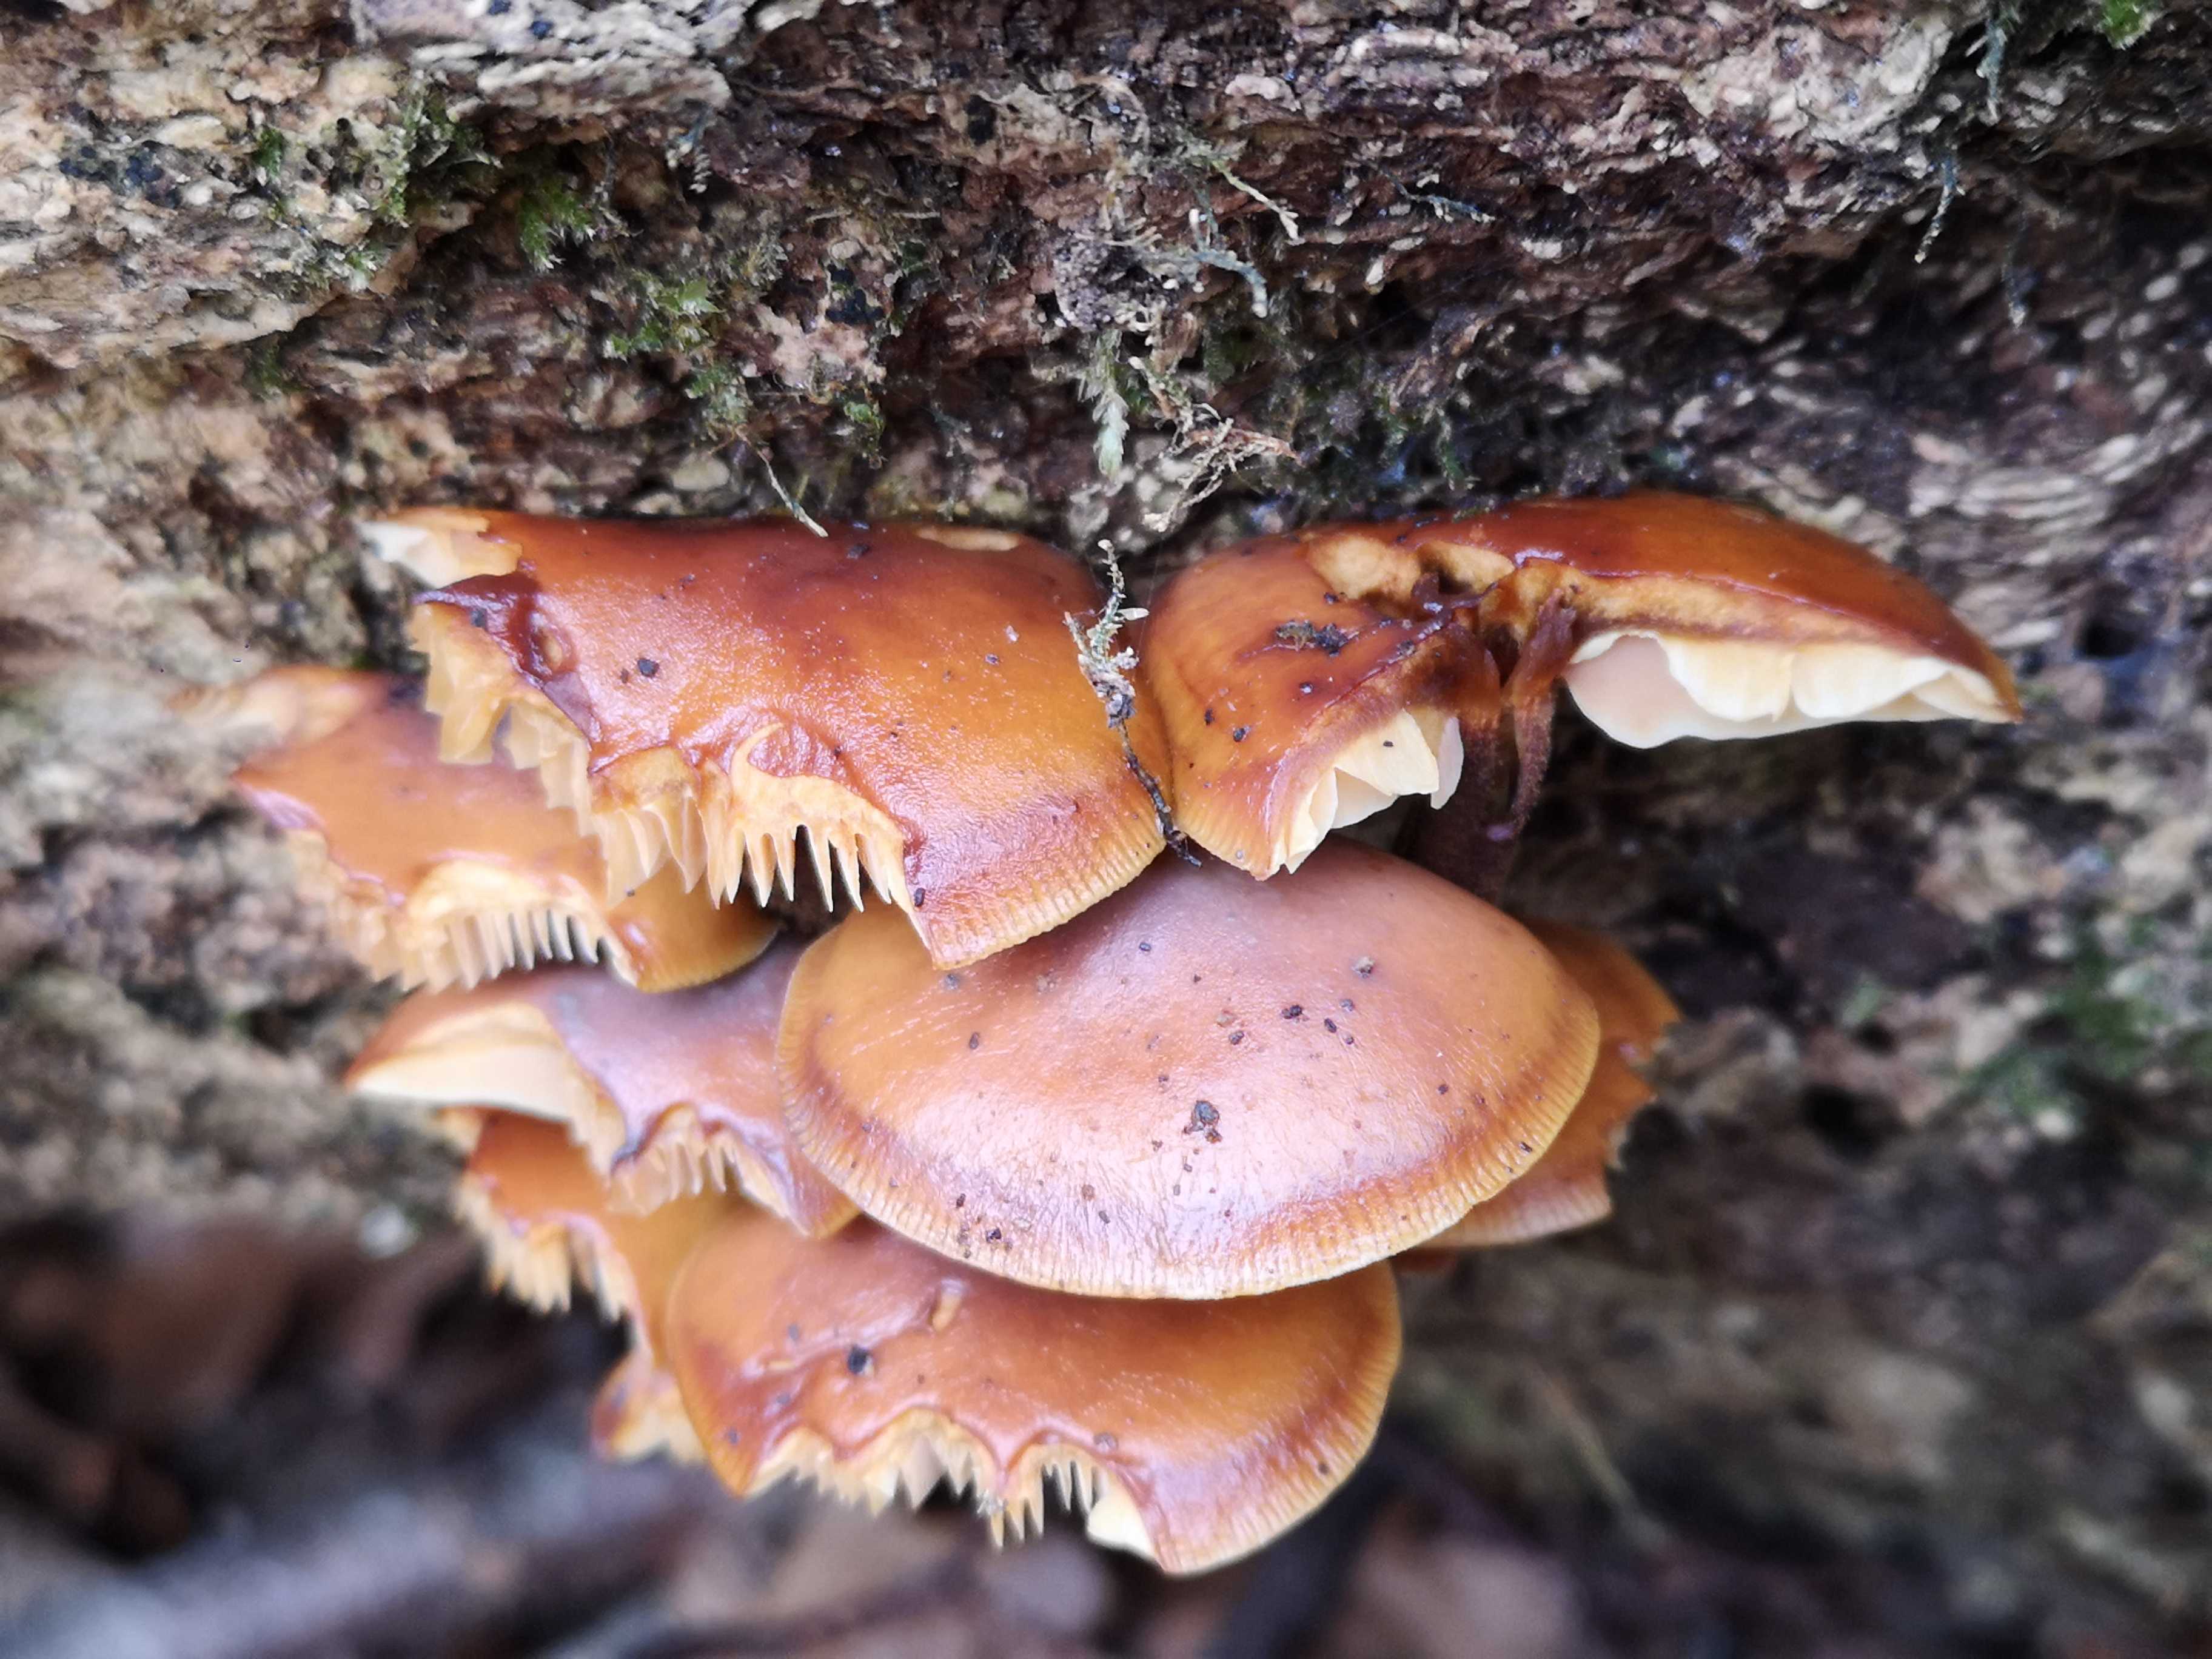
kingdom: Fungi
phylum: Basidiomycota
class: Agaricomycetes
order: Agaricales
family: Physalacriaceae
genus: Flammulina
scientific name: Flammulina
